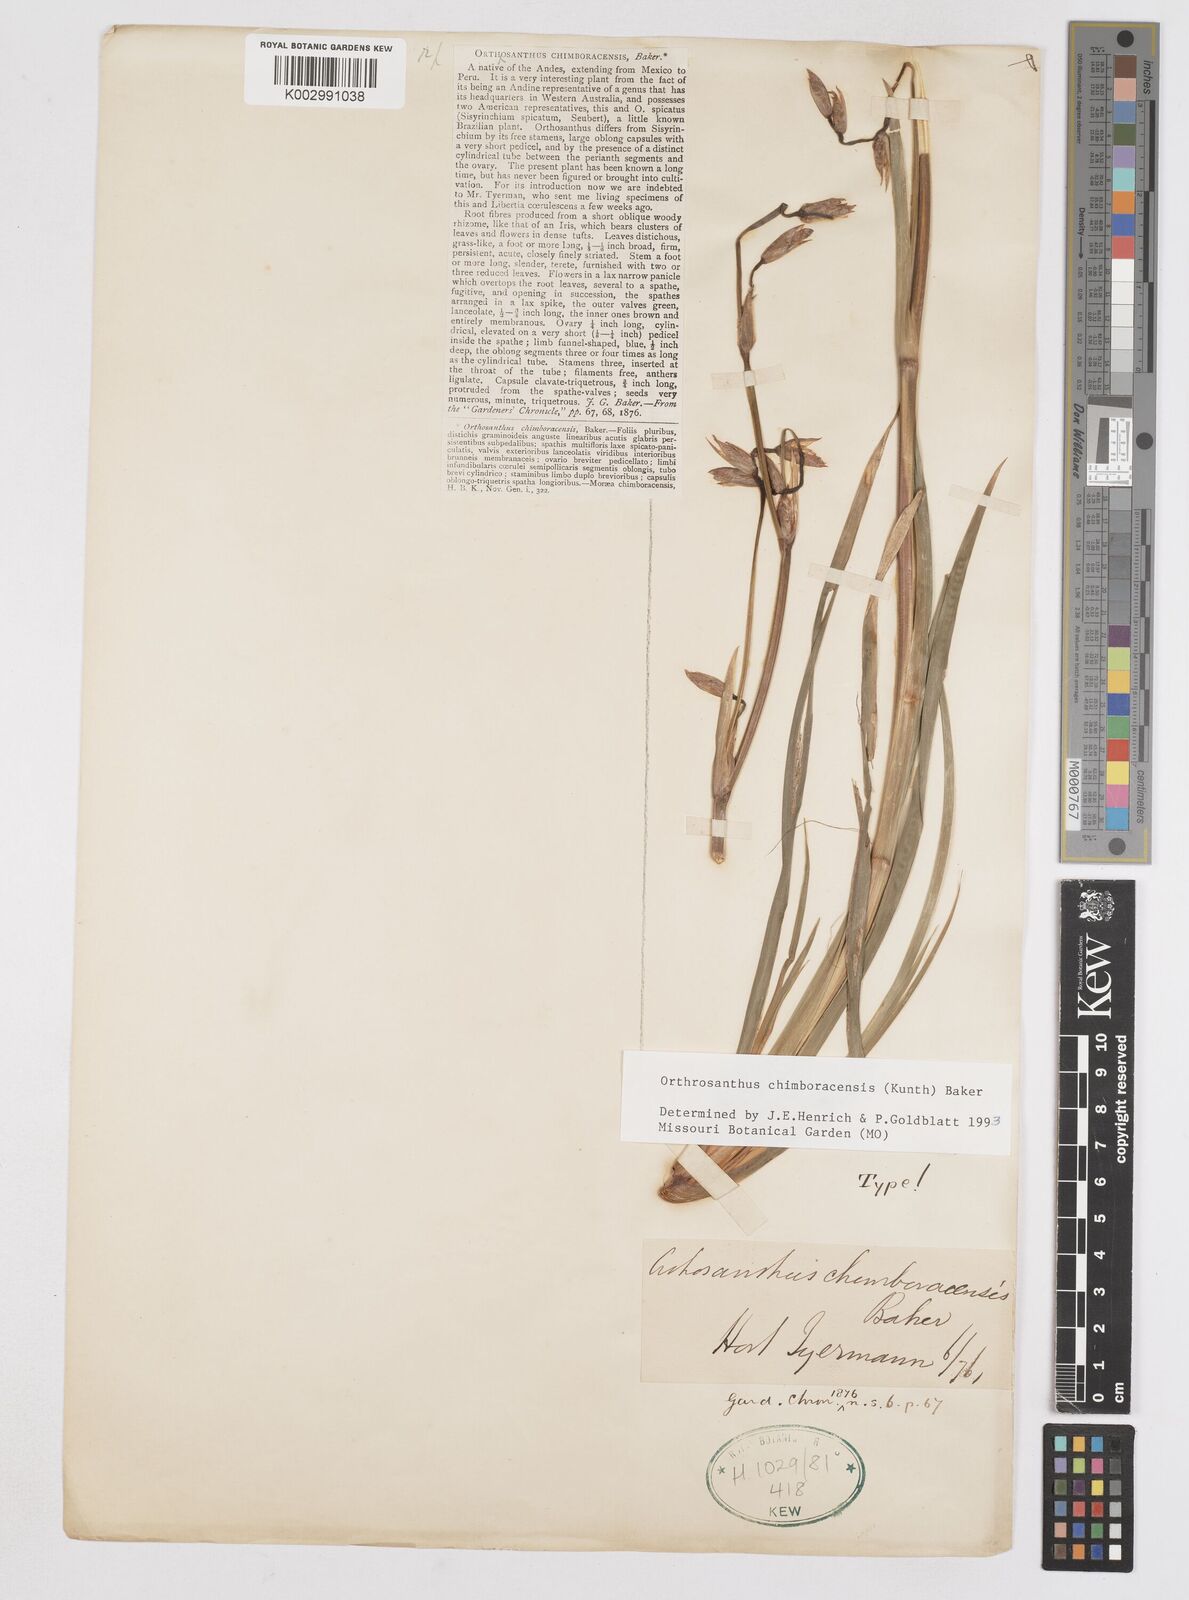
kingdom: Plantae
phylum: Tracheophyta
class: Liliopsida
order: Asparagales
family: Iridaceae
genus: Orthrosanthus
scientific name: Orthrosanthus chimboracensis
